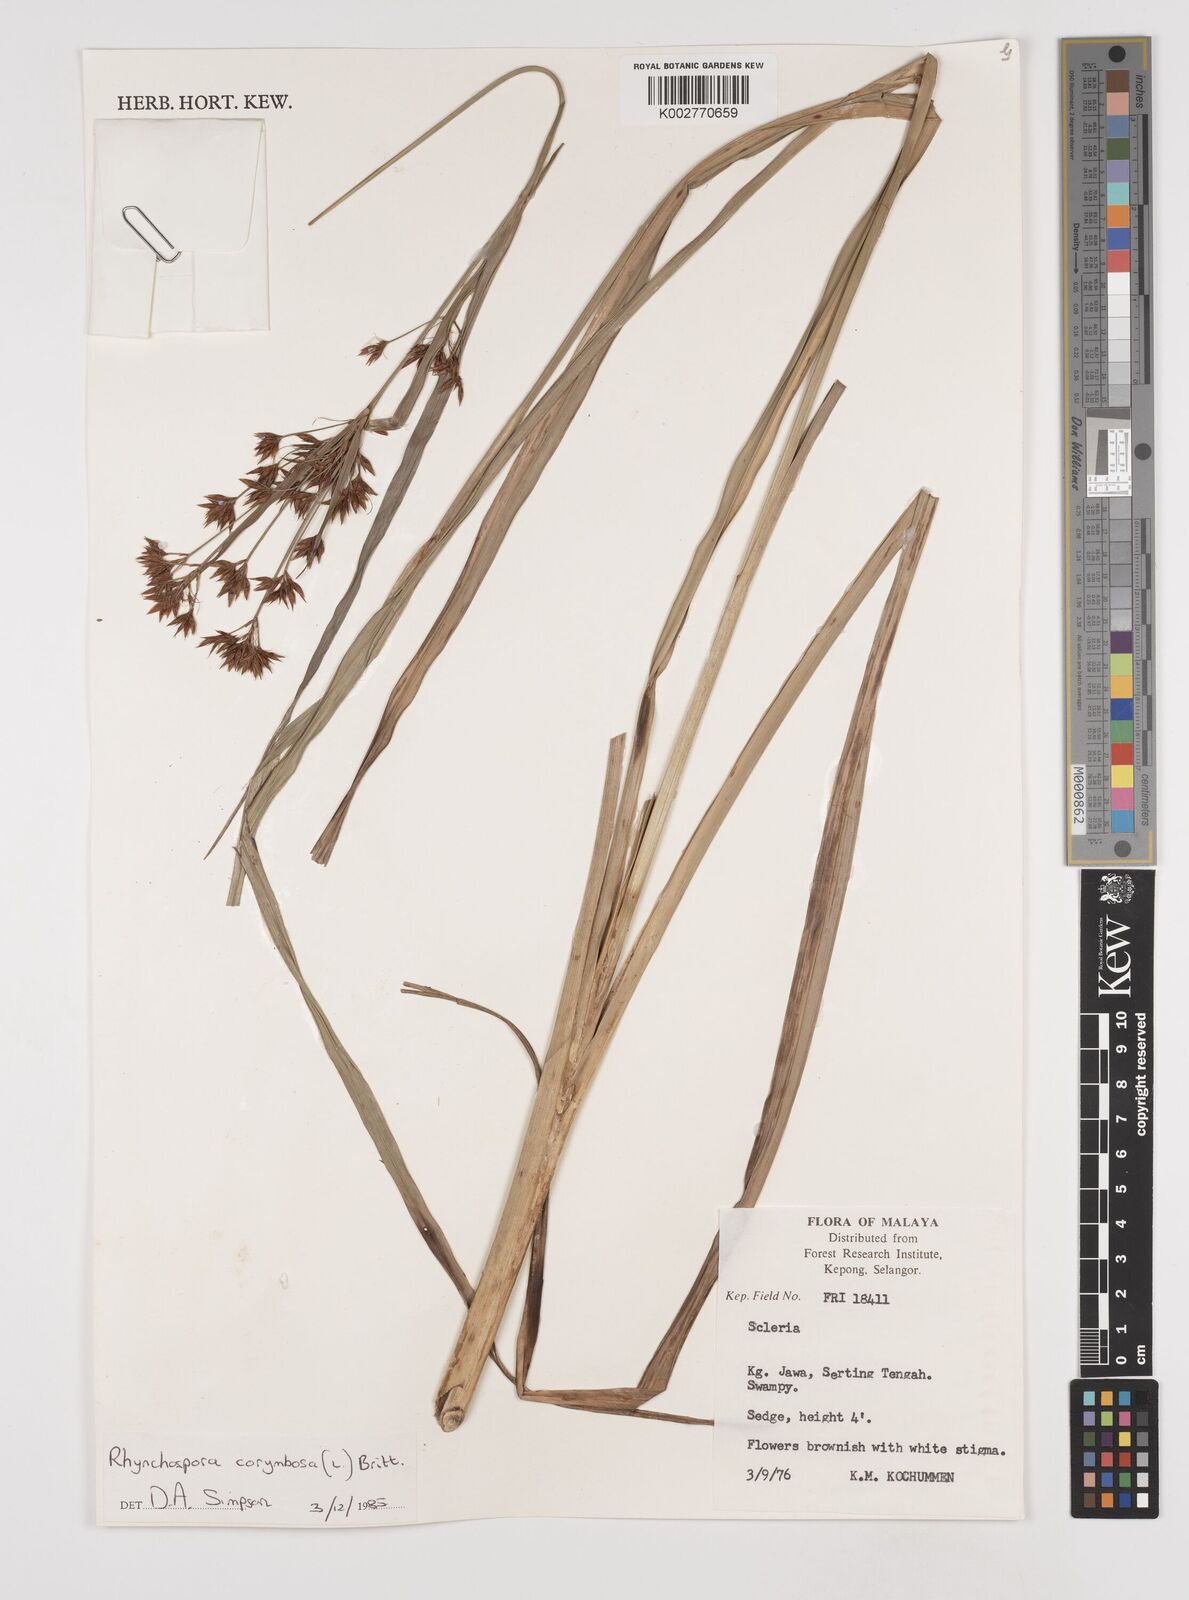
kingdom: Plantae
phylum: Tracheophyta
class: Liliopsida
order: Poales
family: Cyperaceae
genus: Rhynchospora
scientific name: Rhynchospora corymbosa
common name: Golden beak sedge
